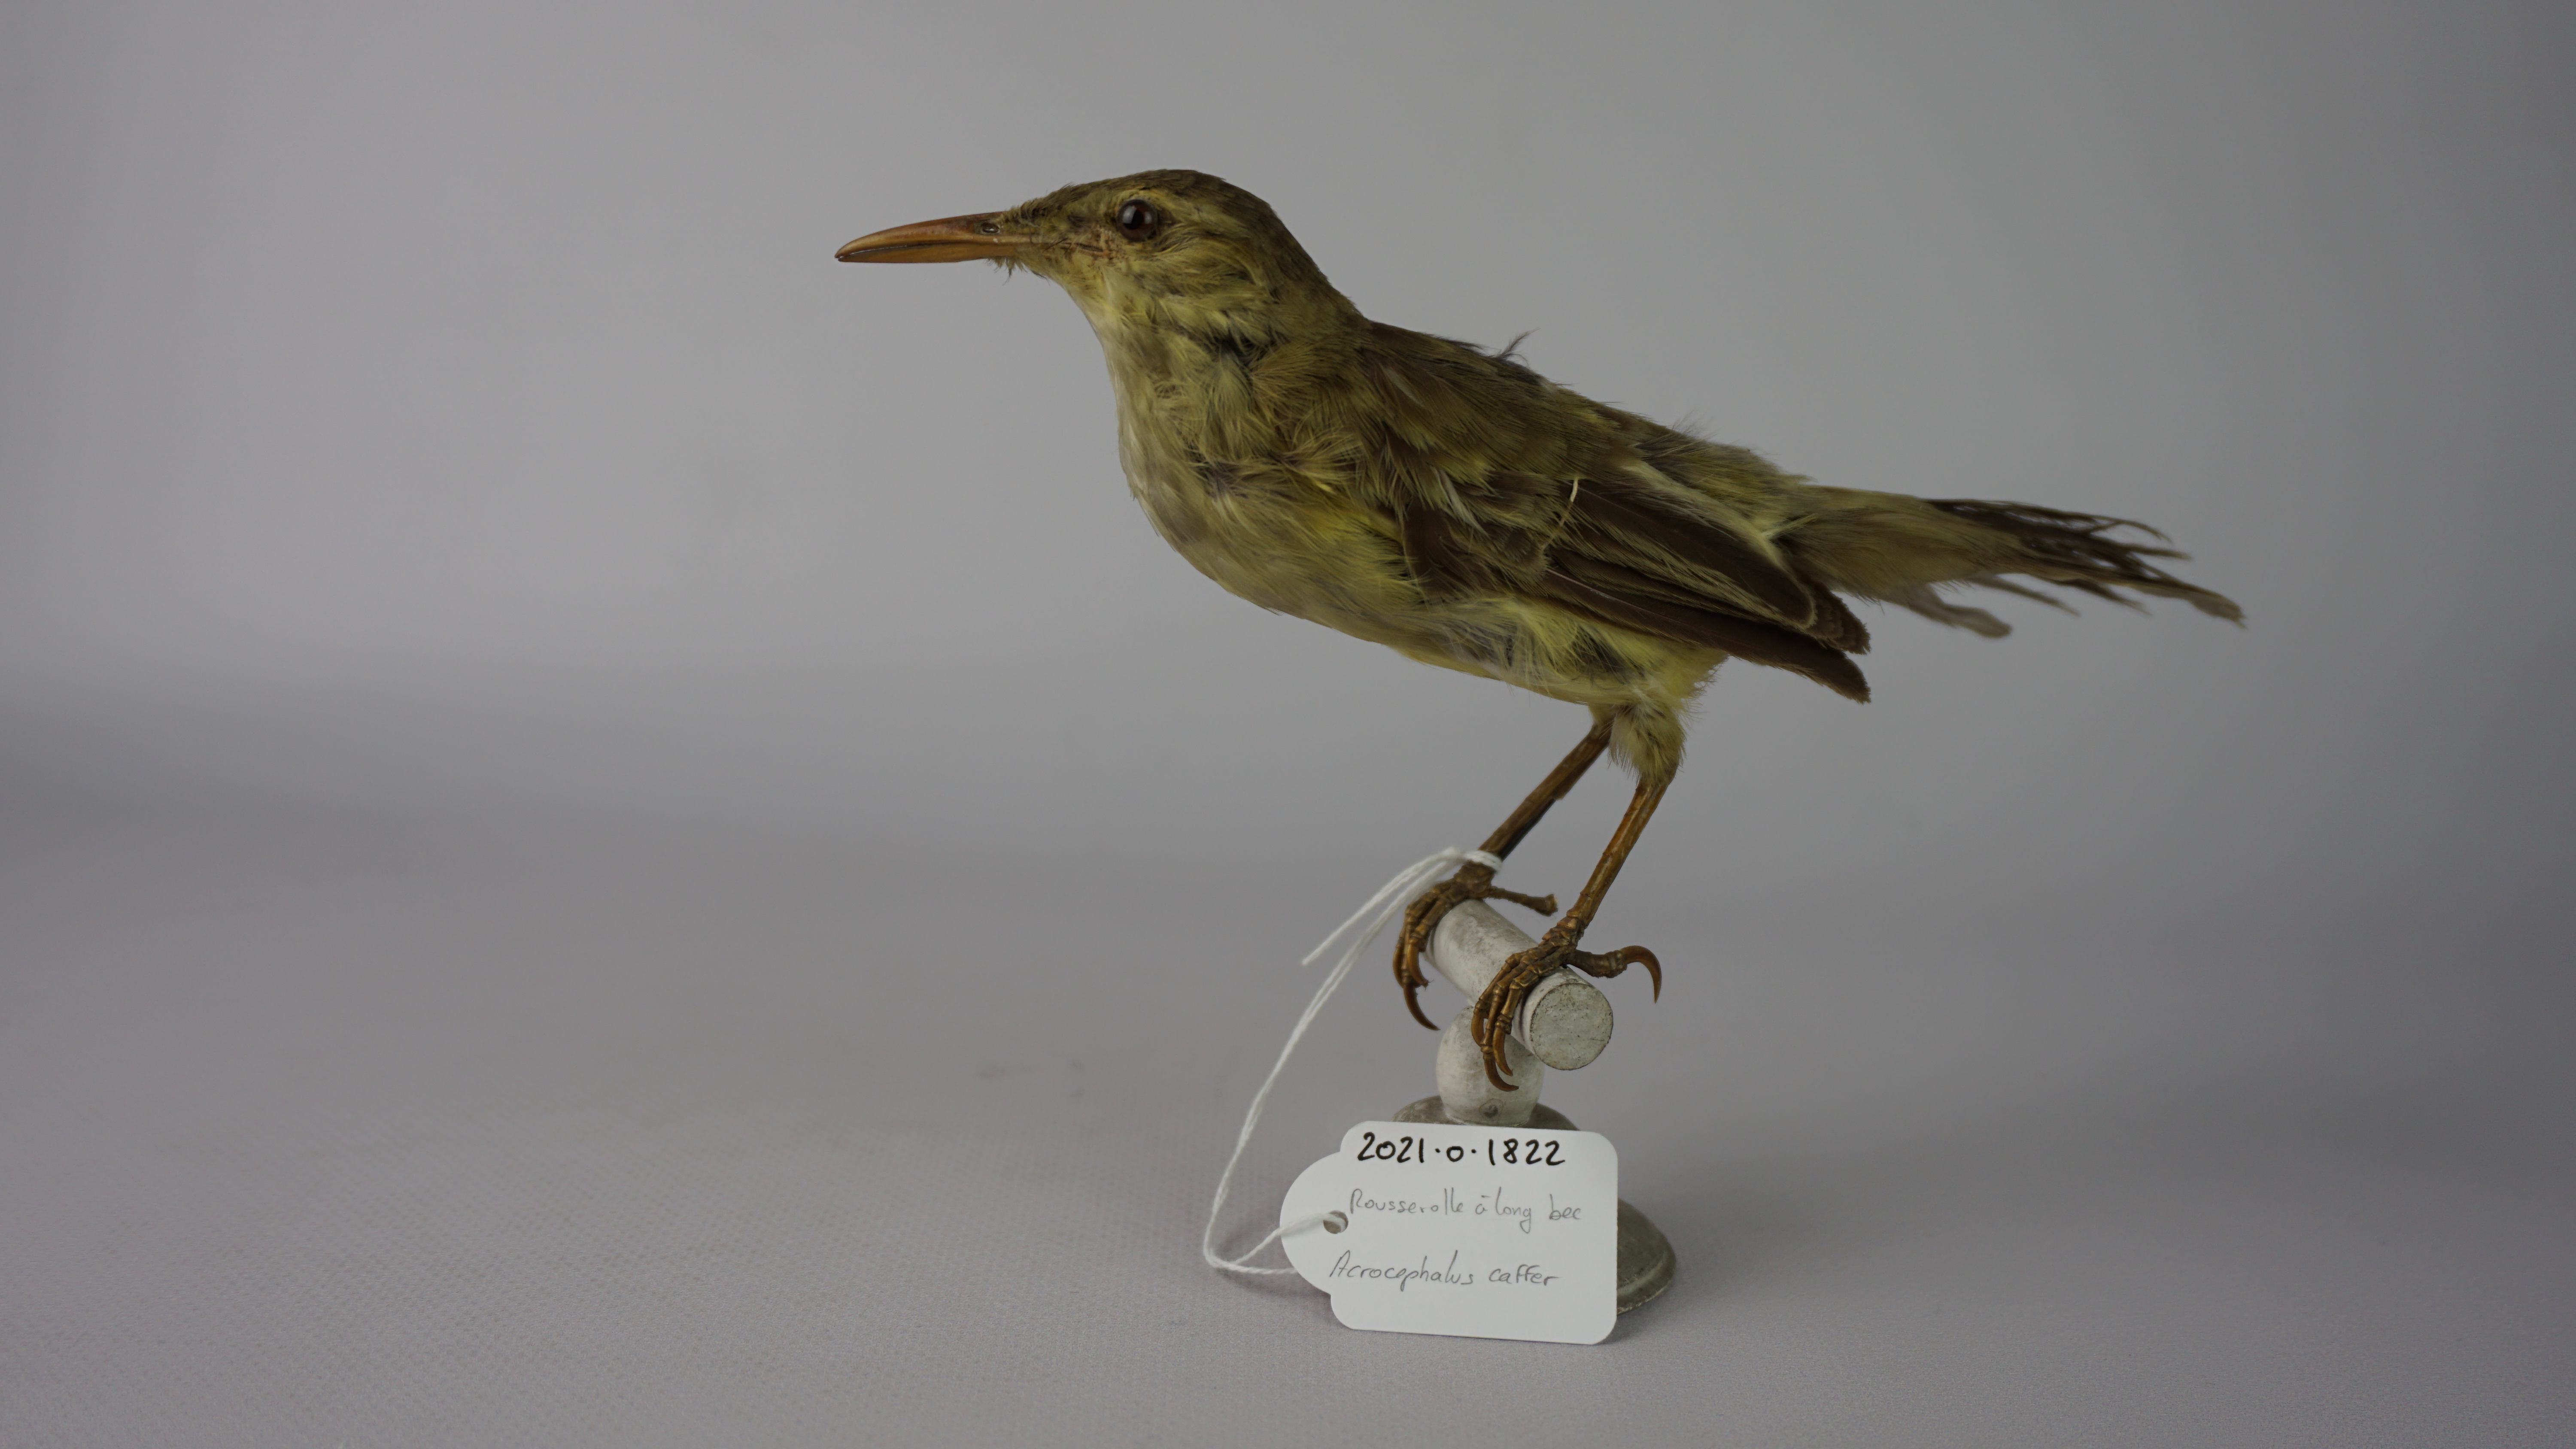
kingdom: Animalia
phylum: Chordata
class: Aves
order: Passeriformes
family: Acrocephalidae
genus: Acrocephalus
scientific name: Acrocephalus caffer
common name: Tahiti reed warbler
